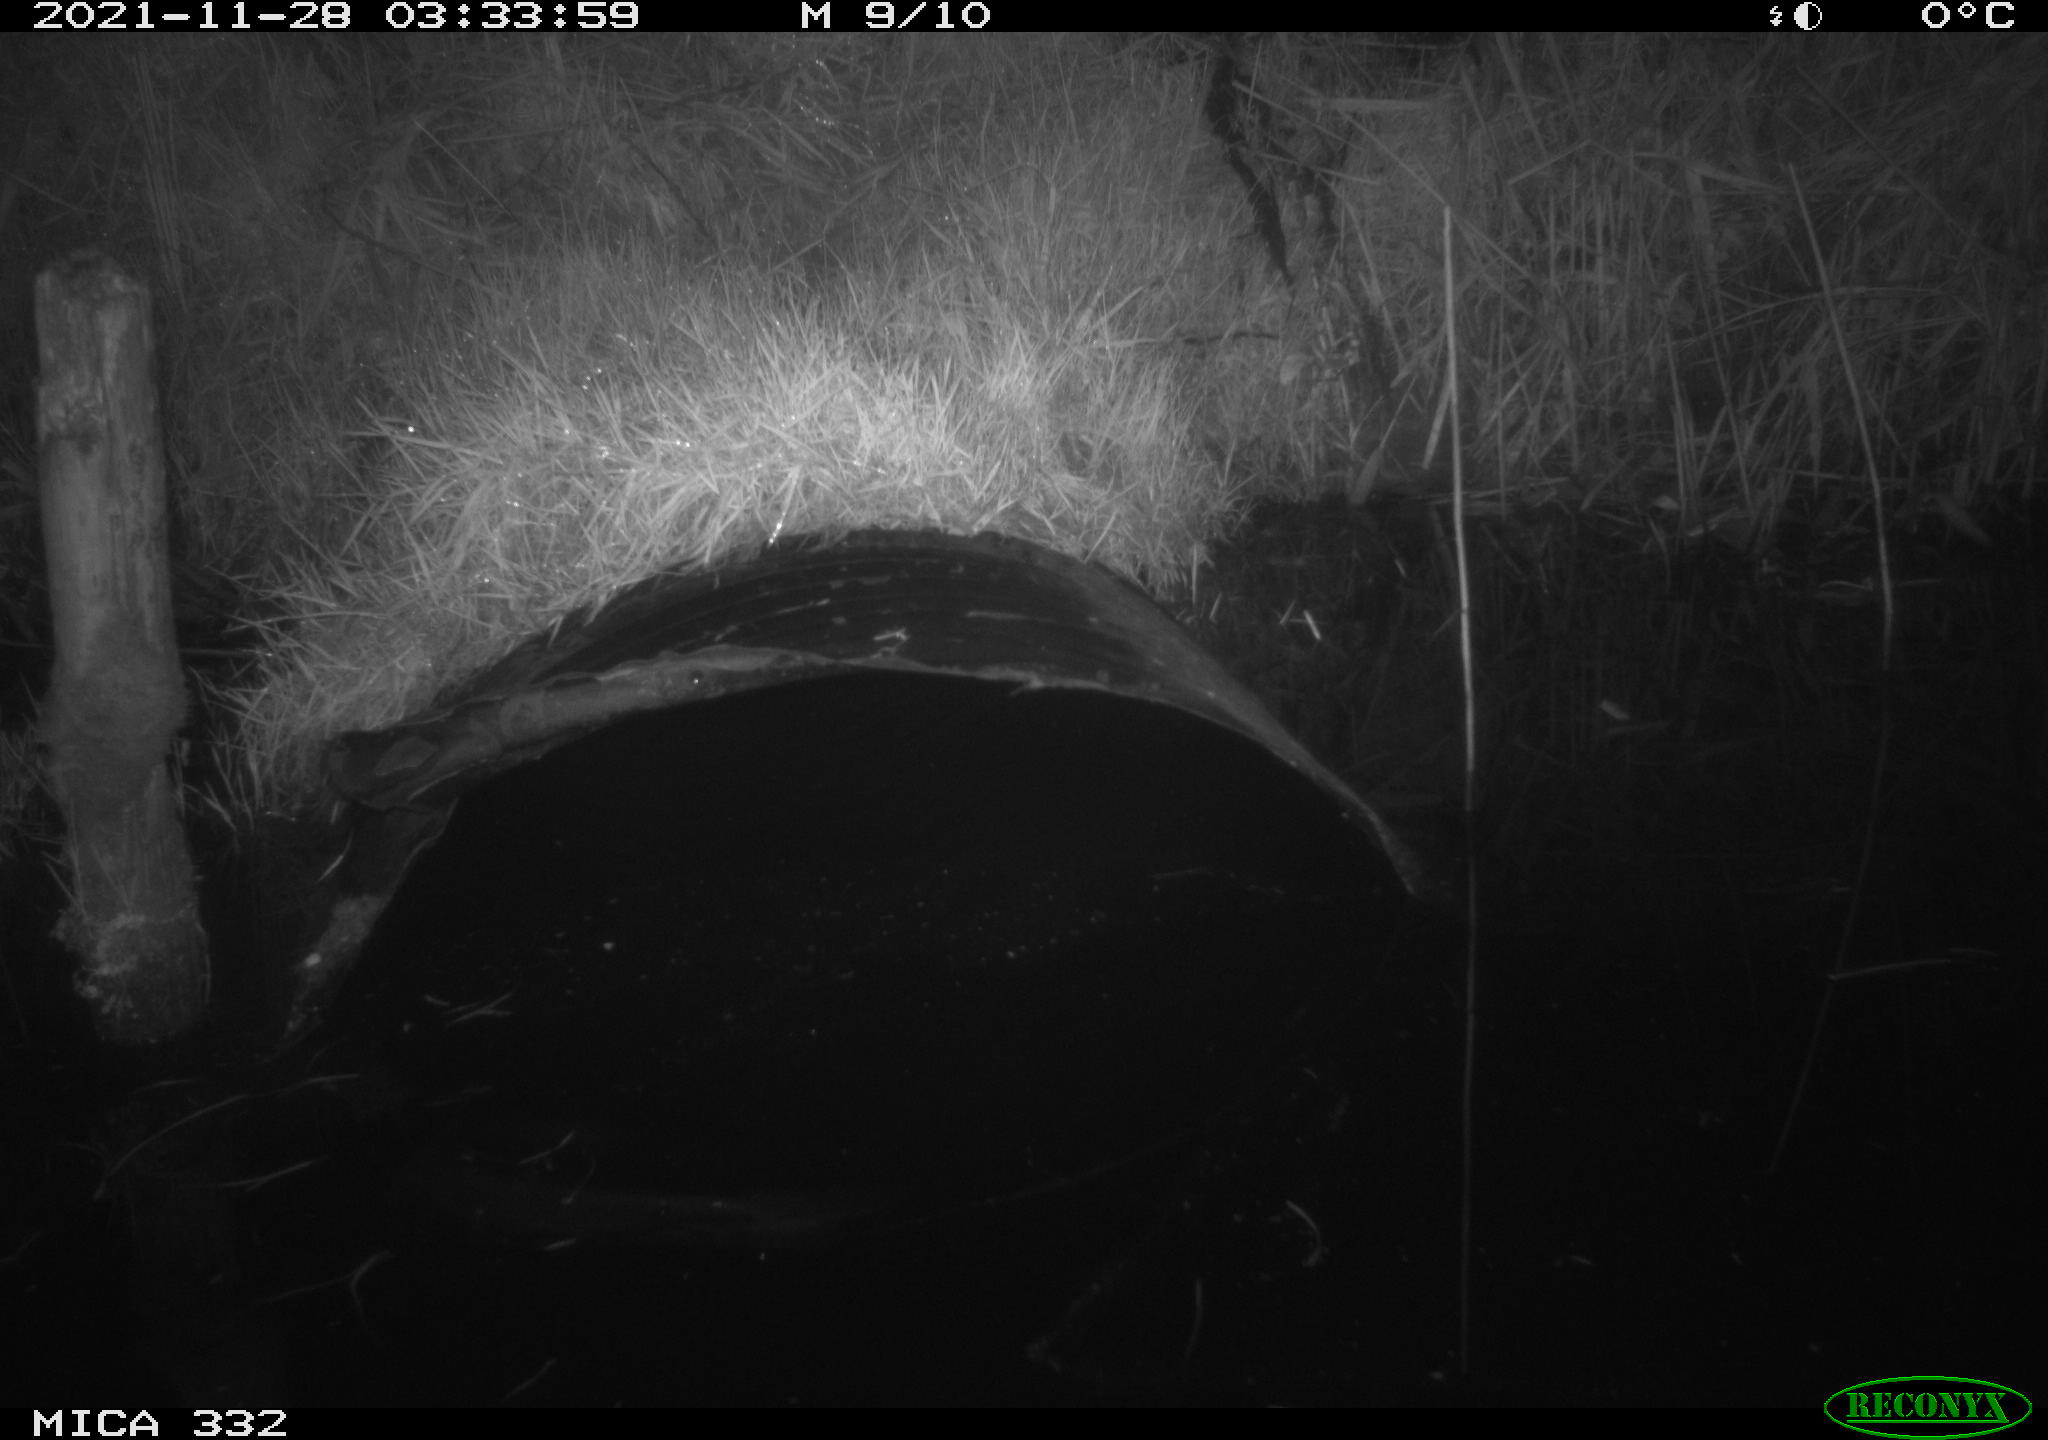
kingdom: Animalia
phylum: Chordata
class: Mammalia
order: Rodentia
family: Muridae
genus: Rattus
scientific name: Rattus norvegicus
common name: Brown rat
